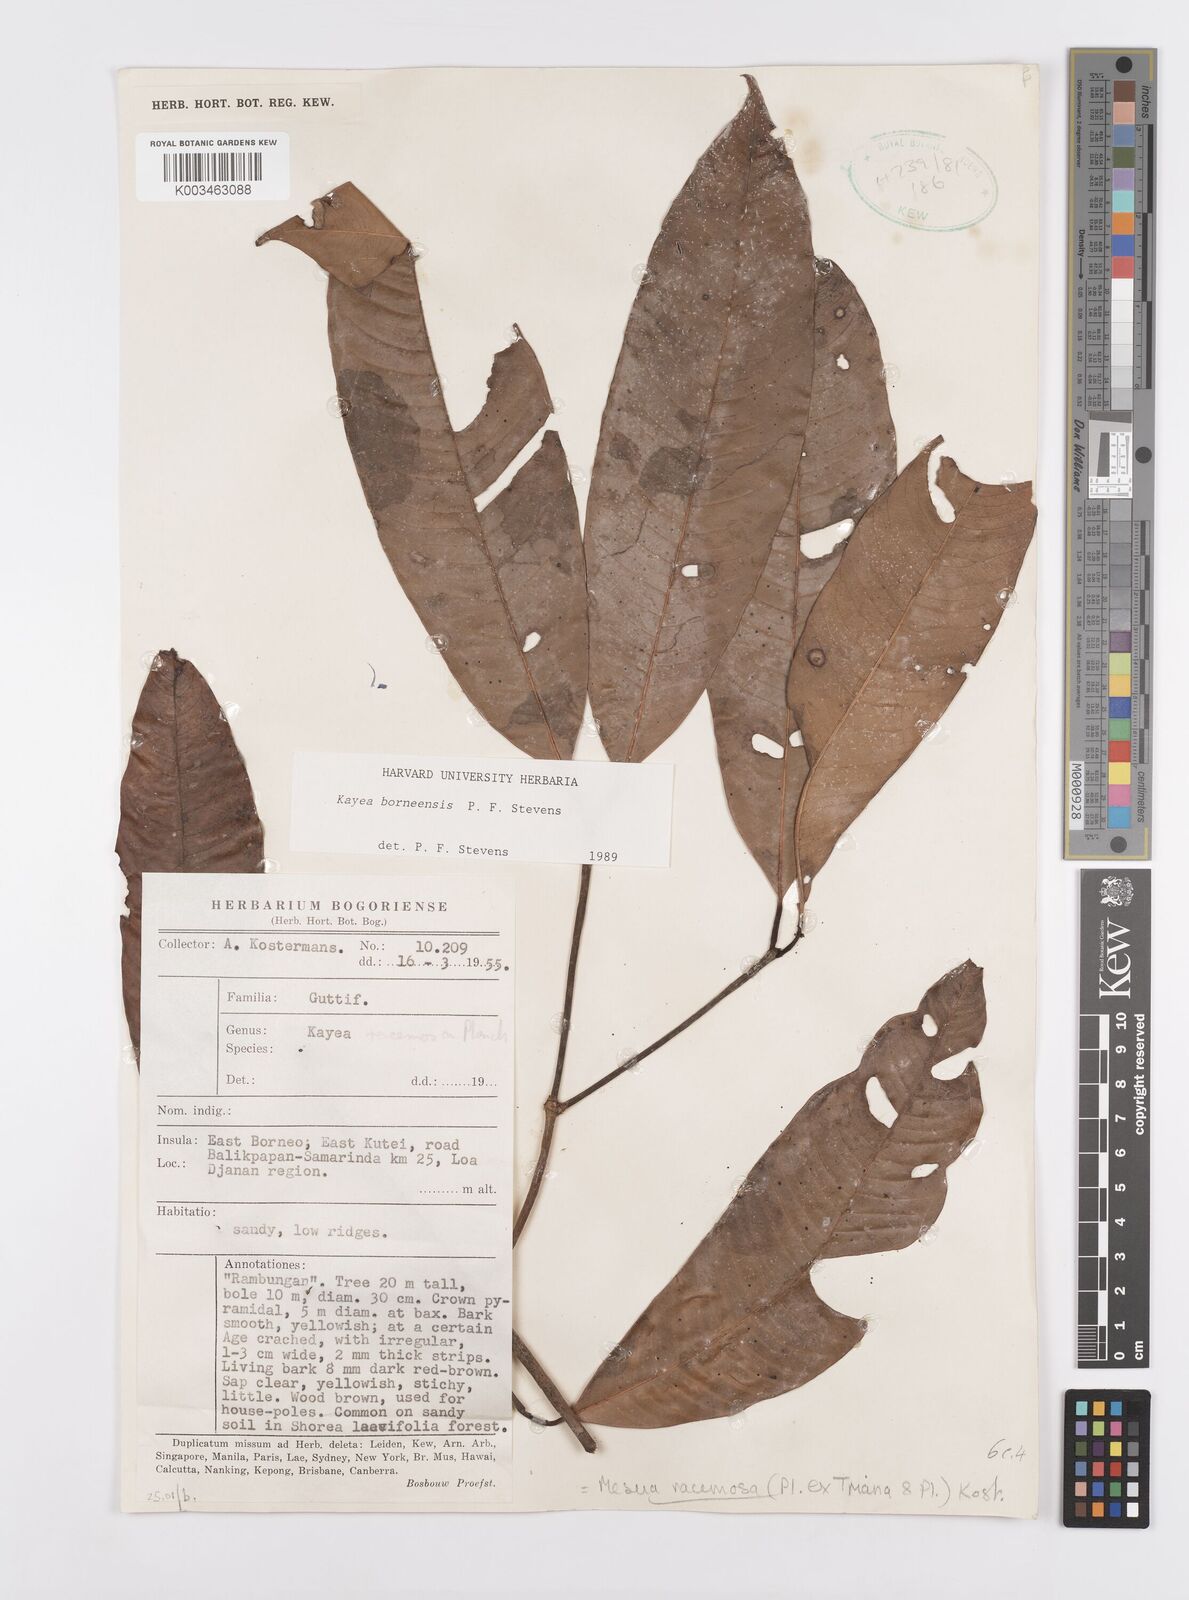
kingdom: Plantae
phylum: Tracheophyta
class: Magnoliopsida
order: Malpighiales
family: Calophyllaceae
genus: Kayea
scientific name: Kayea borneensis
